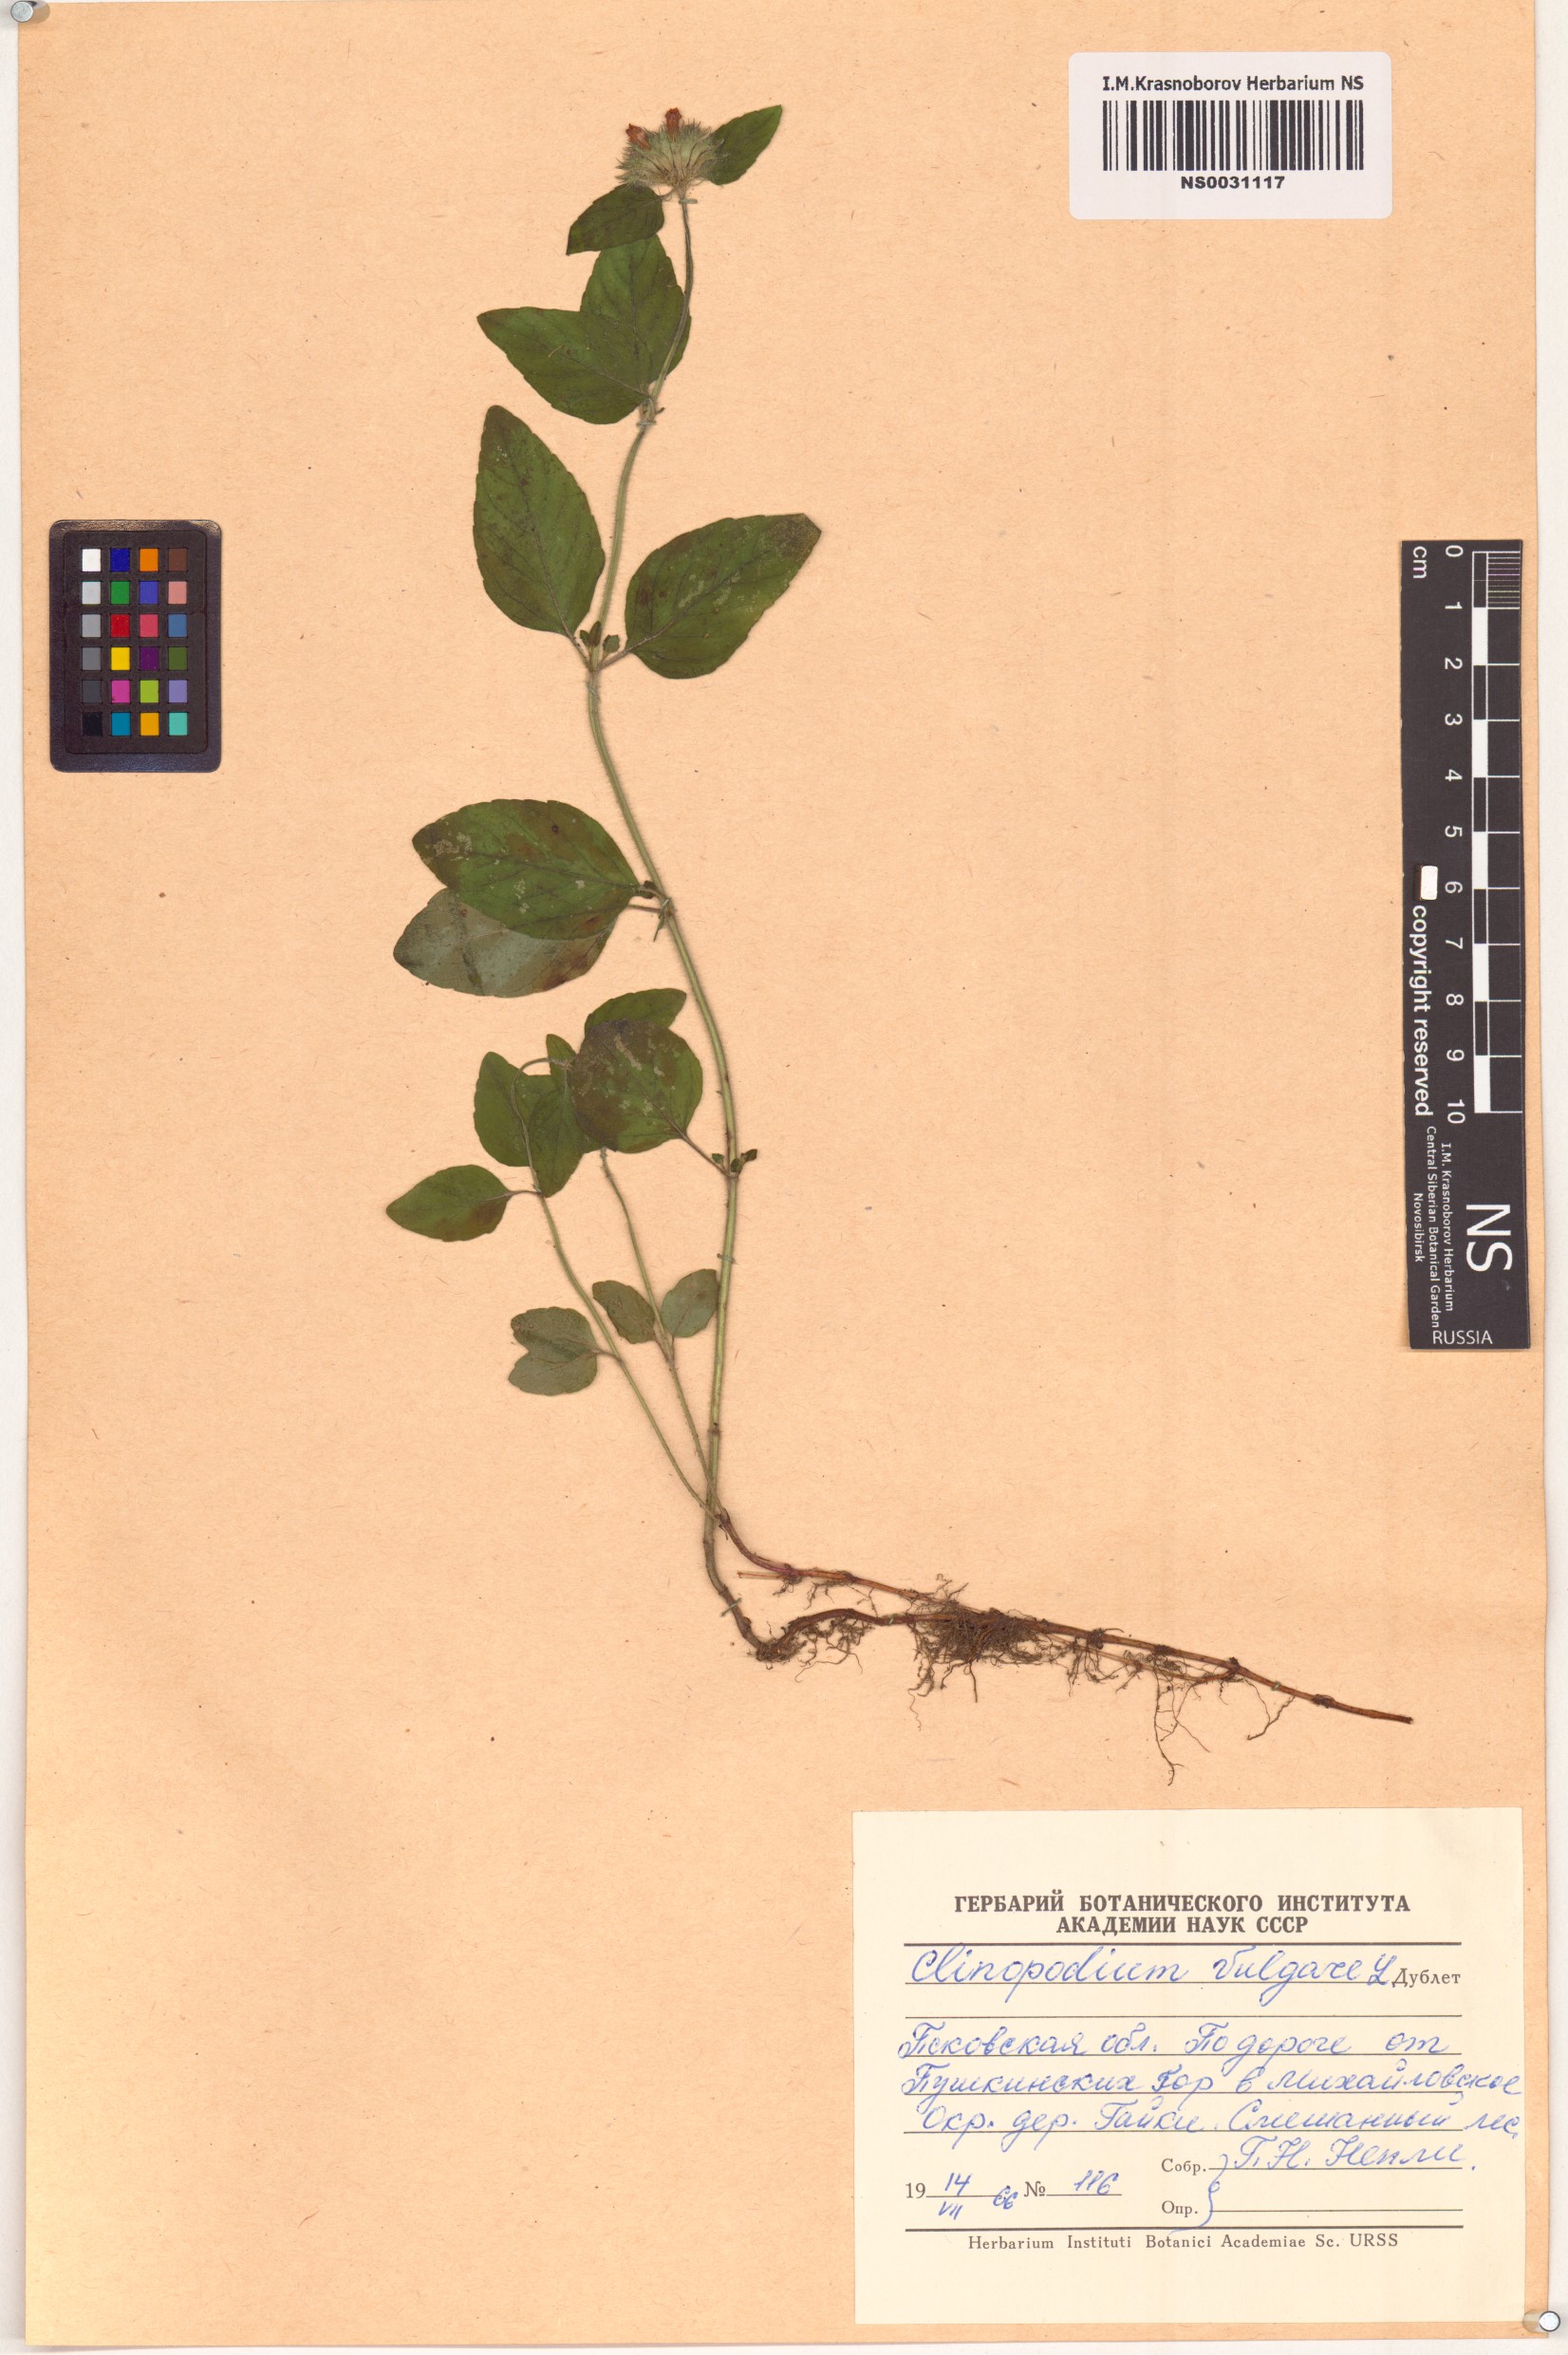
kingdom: Plantae
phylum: Tracheophyta
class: Magnoliopsida
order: Lamiales
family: Lamiaceae
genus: Clinopodium
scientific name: Clinopodium vulgare
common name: Wild basil
